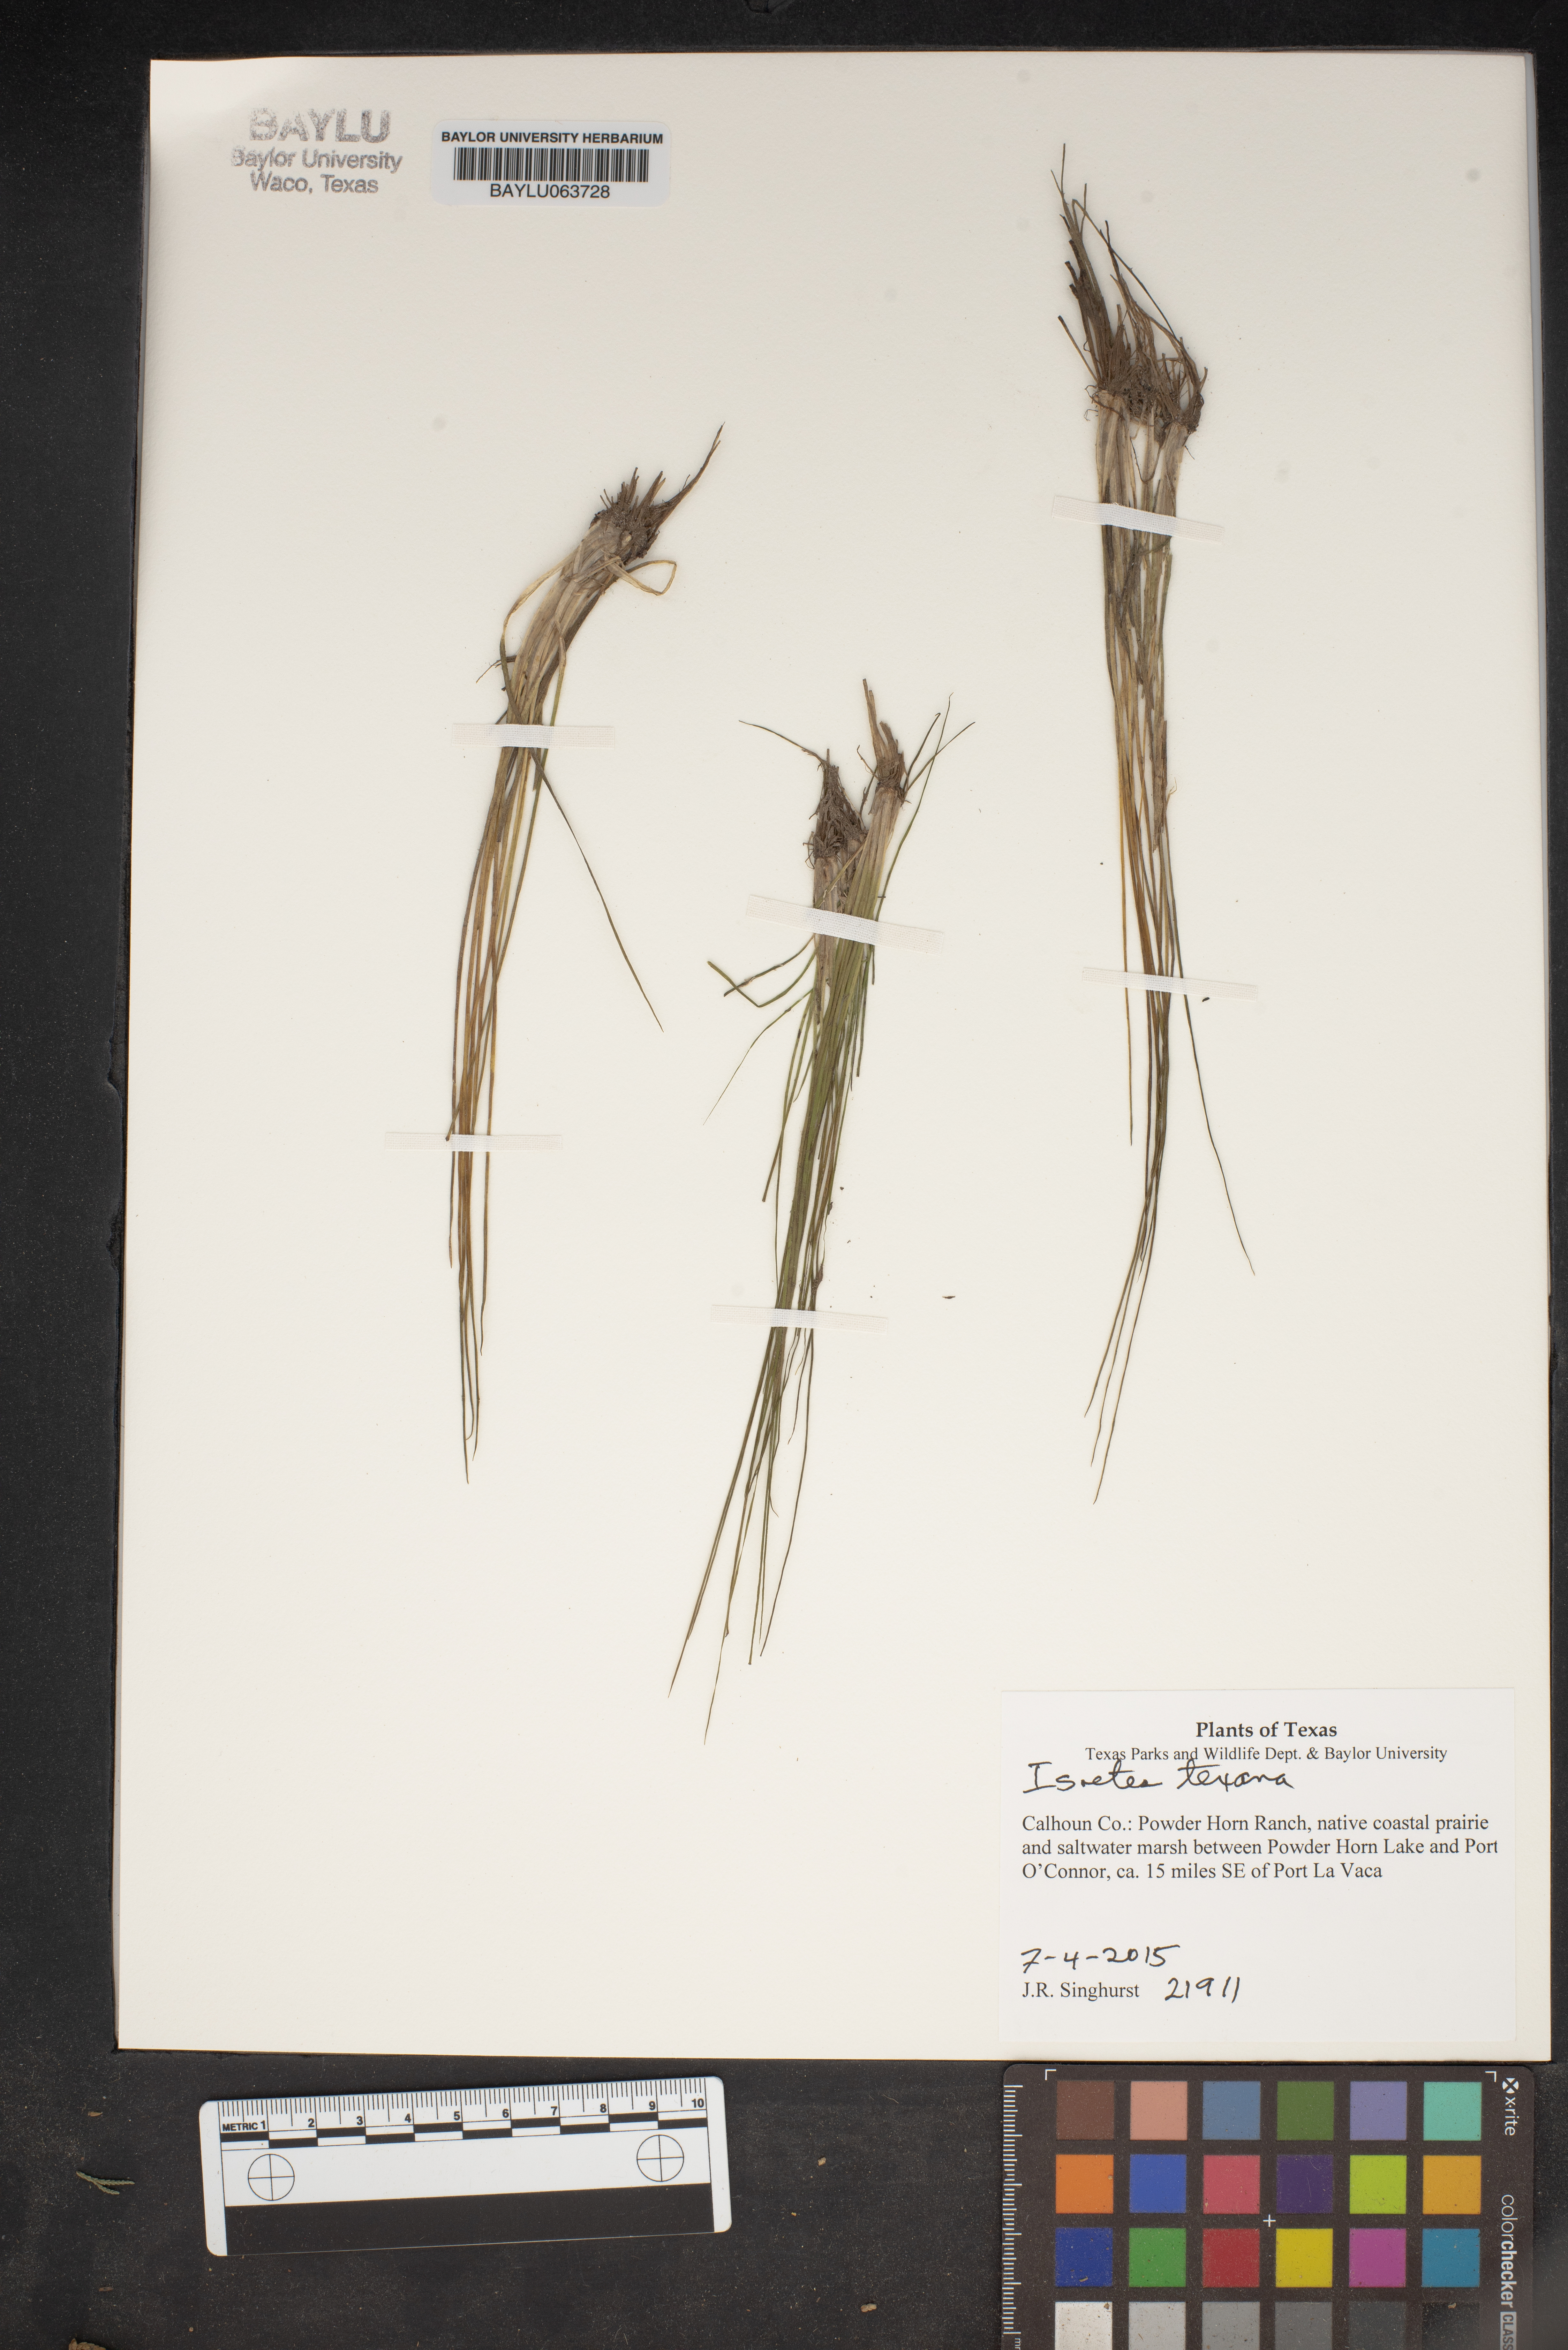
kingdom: Plantae
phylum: Tracheophyta
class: Lycopodiopsida
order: Isoetales
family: Isoetaceae
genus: Isoetes
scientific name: Isoetes texana
